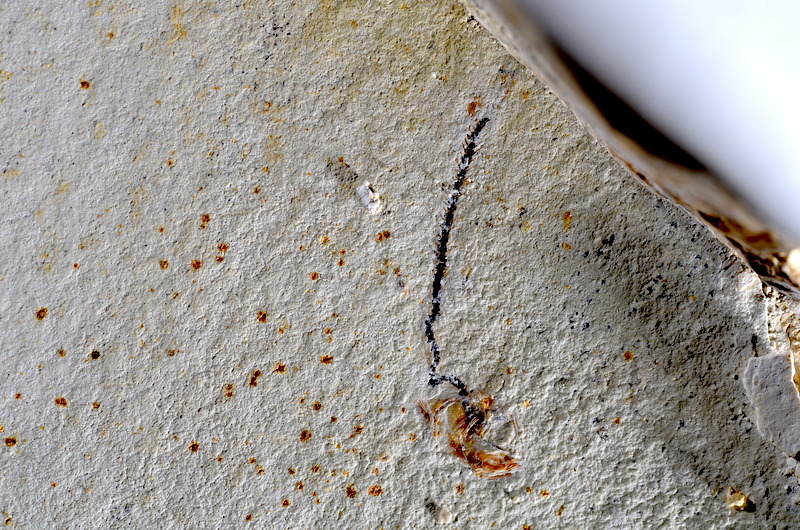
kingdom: Animalia
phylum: Chordata
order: Salmoniformes
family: Orthogonikleithridae
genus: Orthogonikleithrus
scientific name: Orthogonikleithrus hoelli
